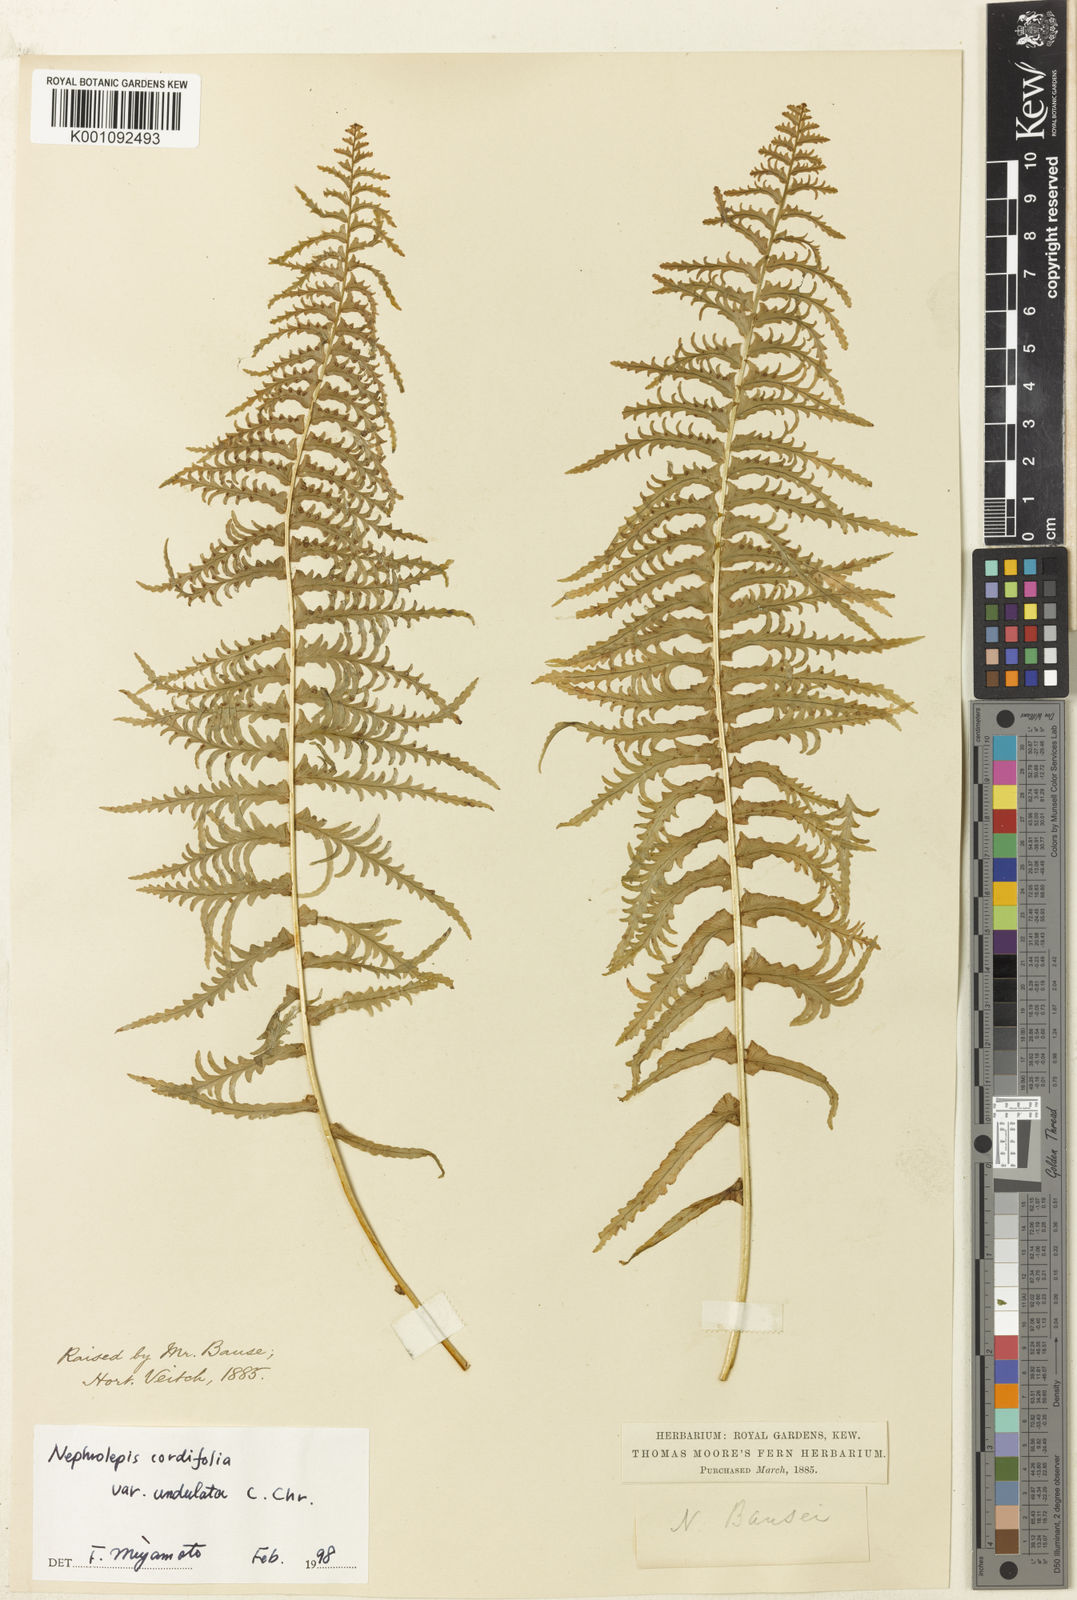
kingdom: Plantae
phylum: Tracheophyta
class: Polypodiopsida
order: Polypodiales
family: Nephrolepidaceae
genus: Nephrolepis
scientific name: Nephrolepis bausei
